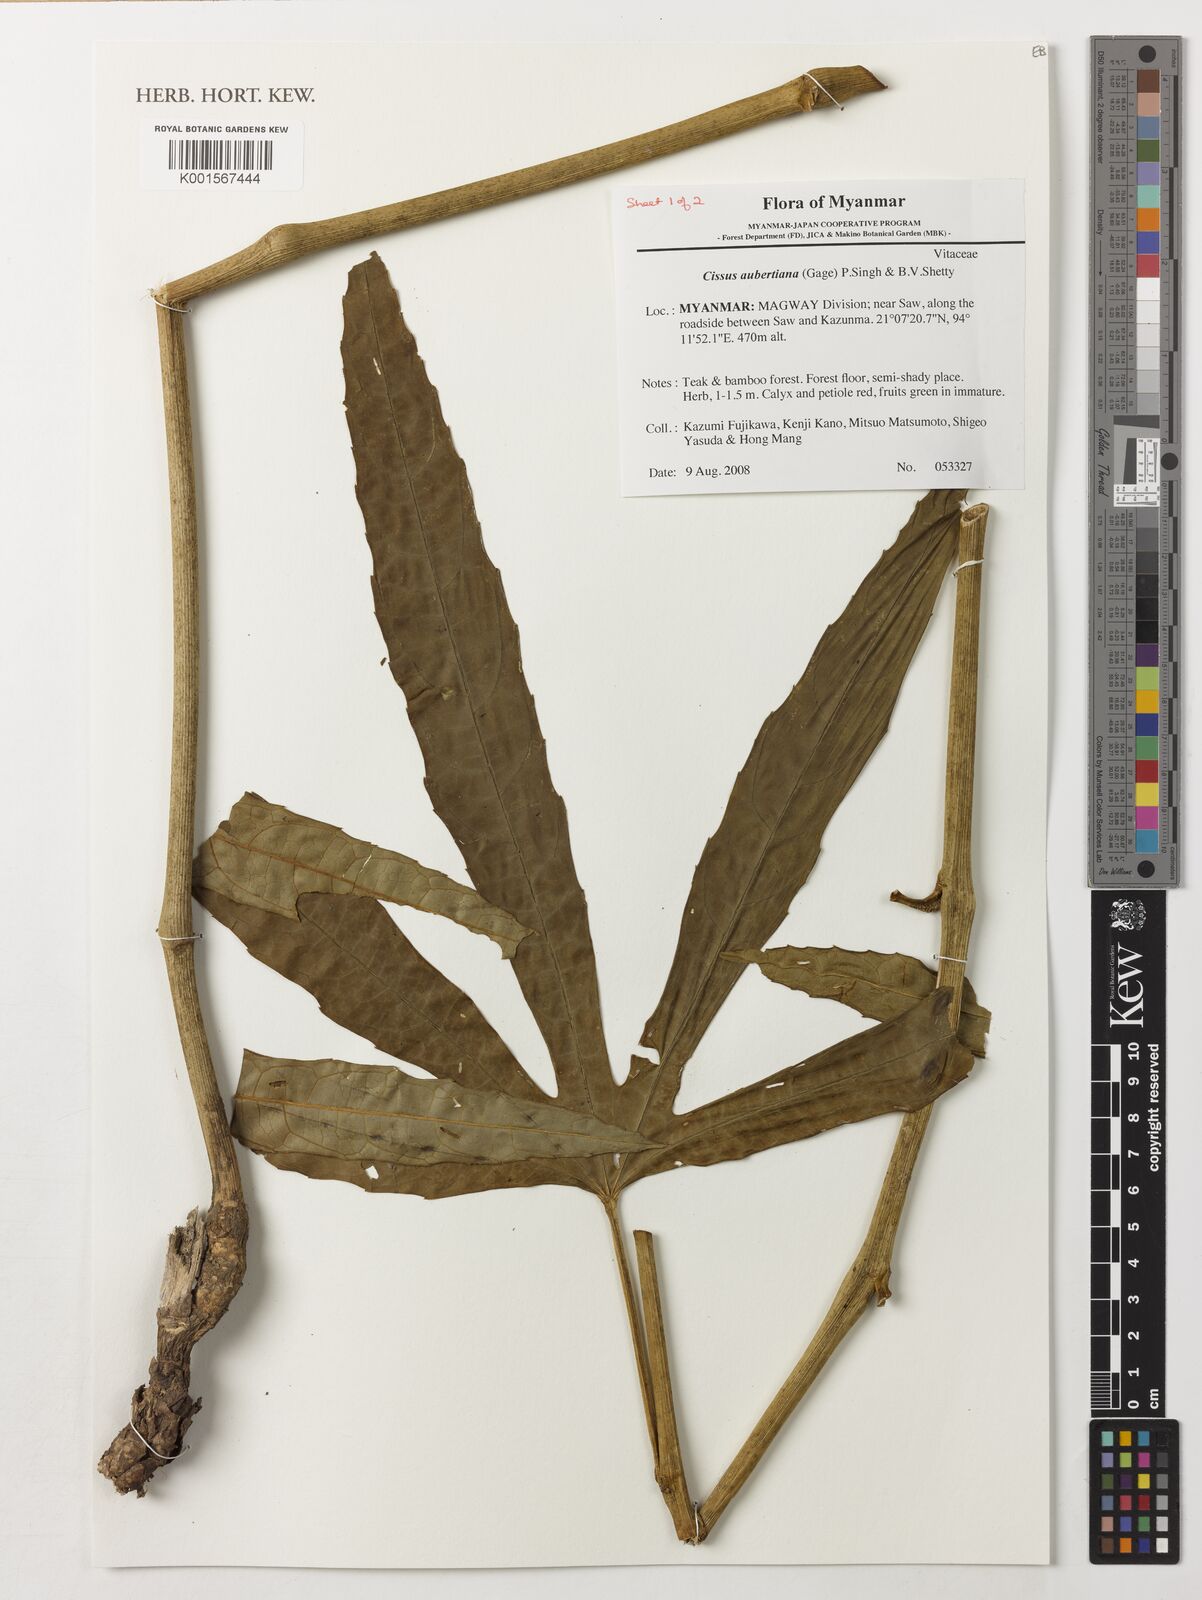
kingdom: Plantae
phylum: Tracheophyta
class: Magnoliopsida
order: Vitales
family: Vitaceae
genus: Cissus
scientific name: Cissus aubertiana
